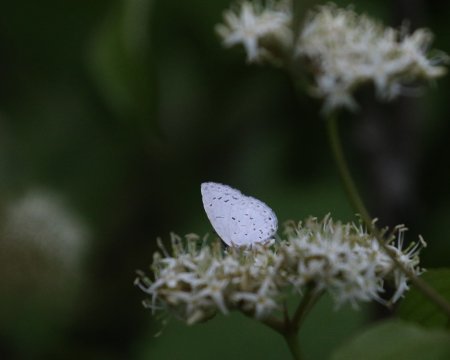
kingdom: Animalia
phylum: Arthropoda
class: Insecta
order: Lepidoptera
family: Lycaenidae
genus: Cyaniris
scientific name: Cyaniris neglecta
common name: Summer Azure
